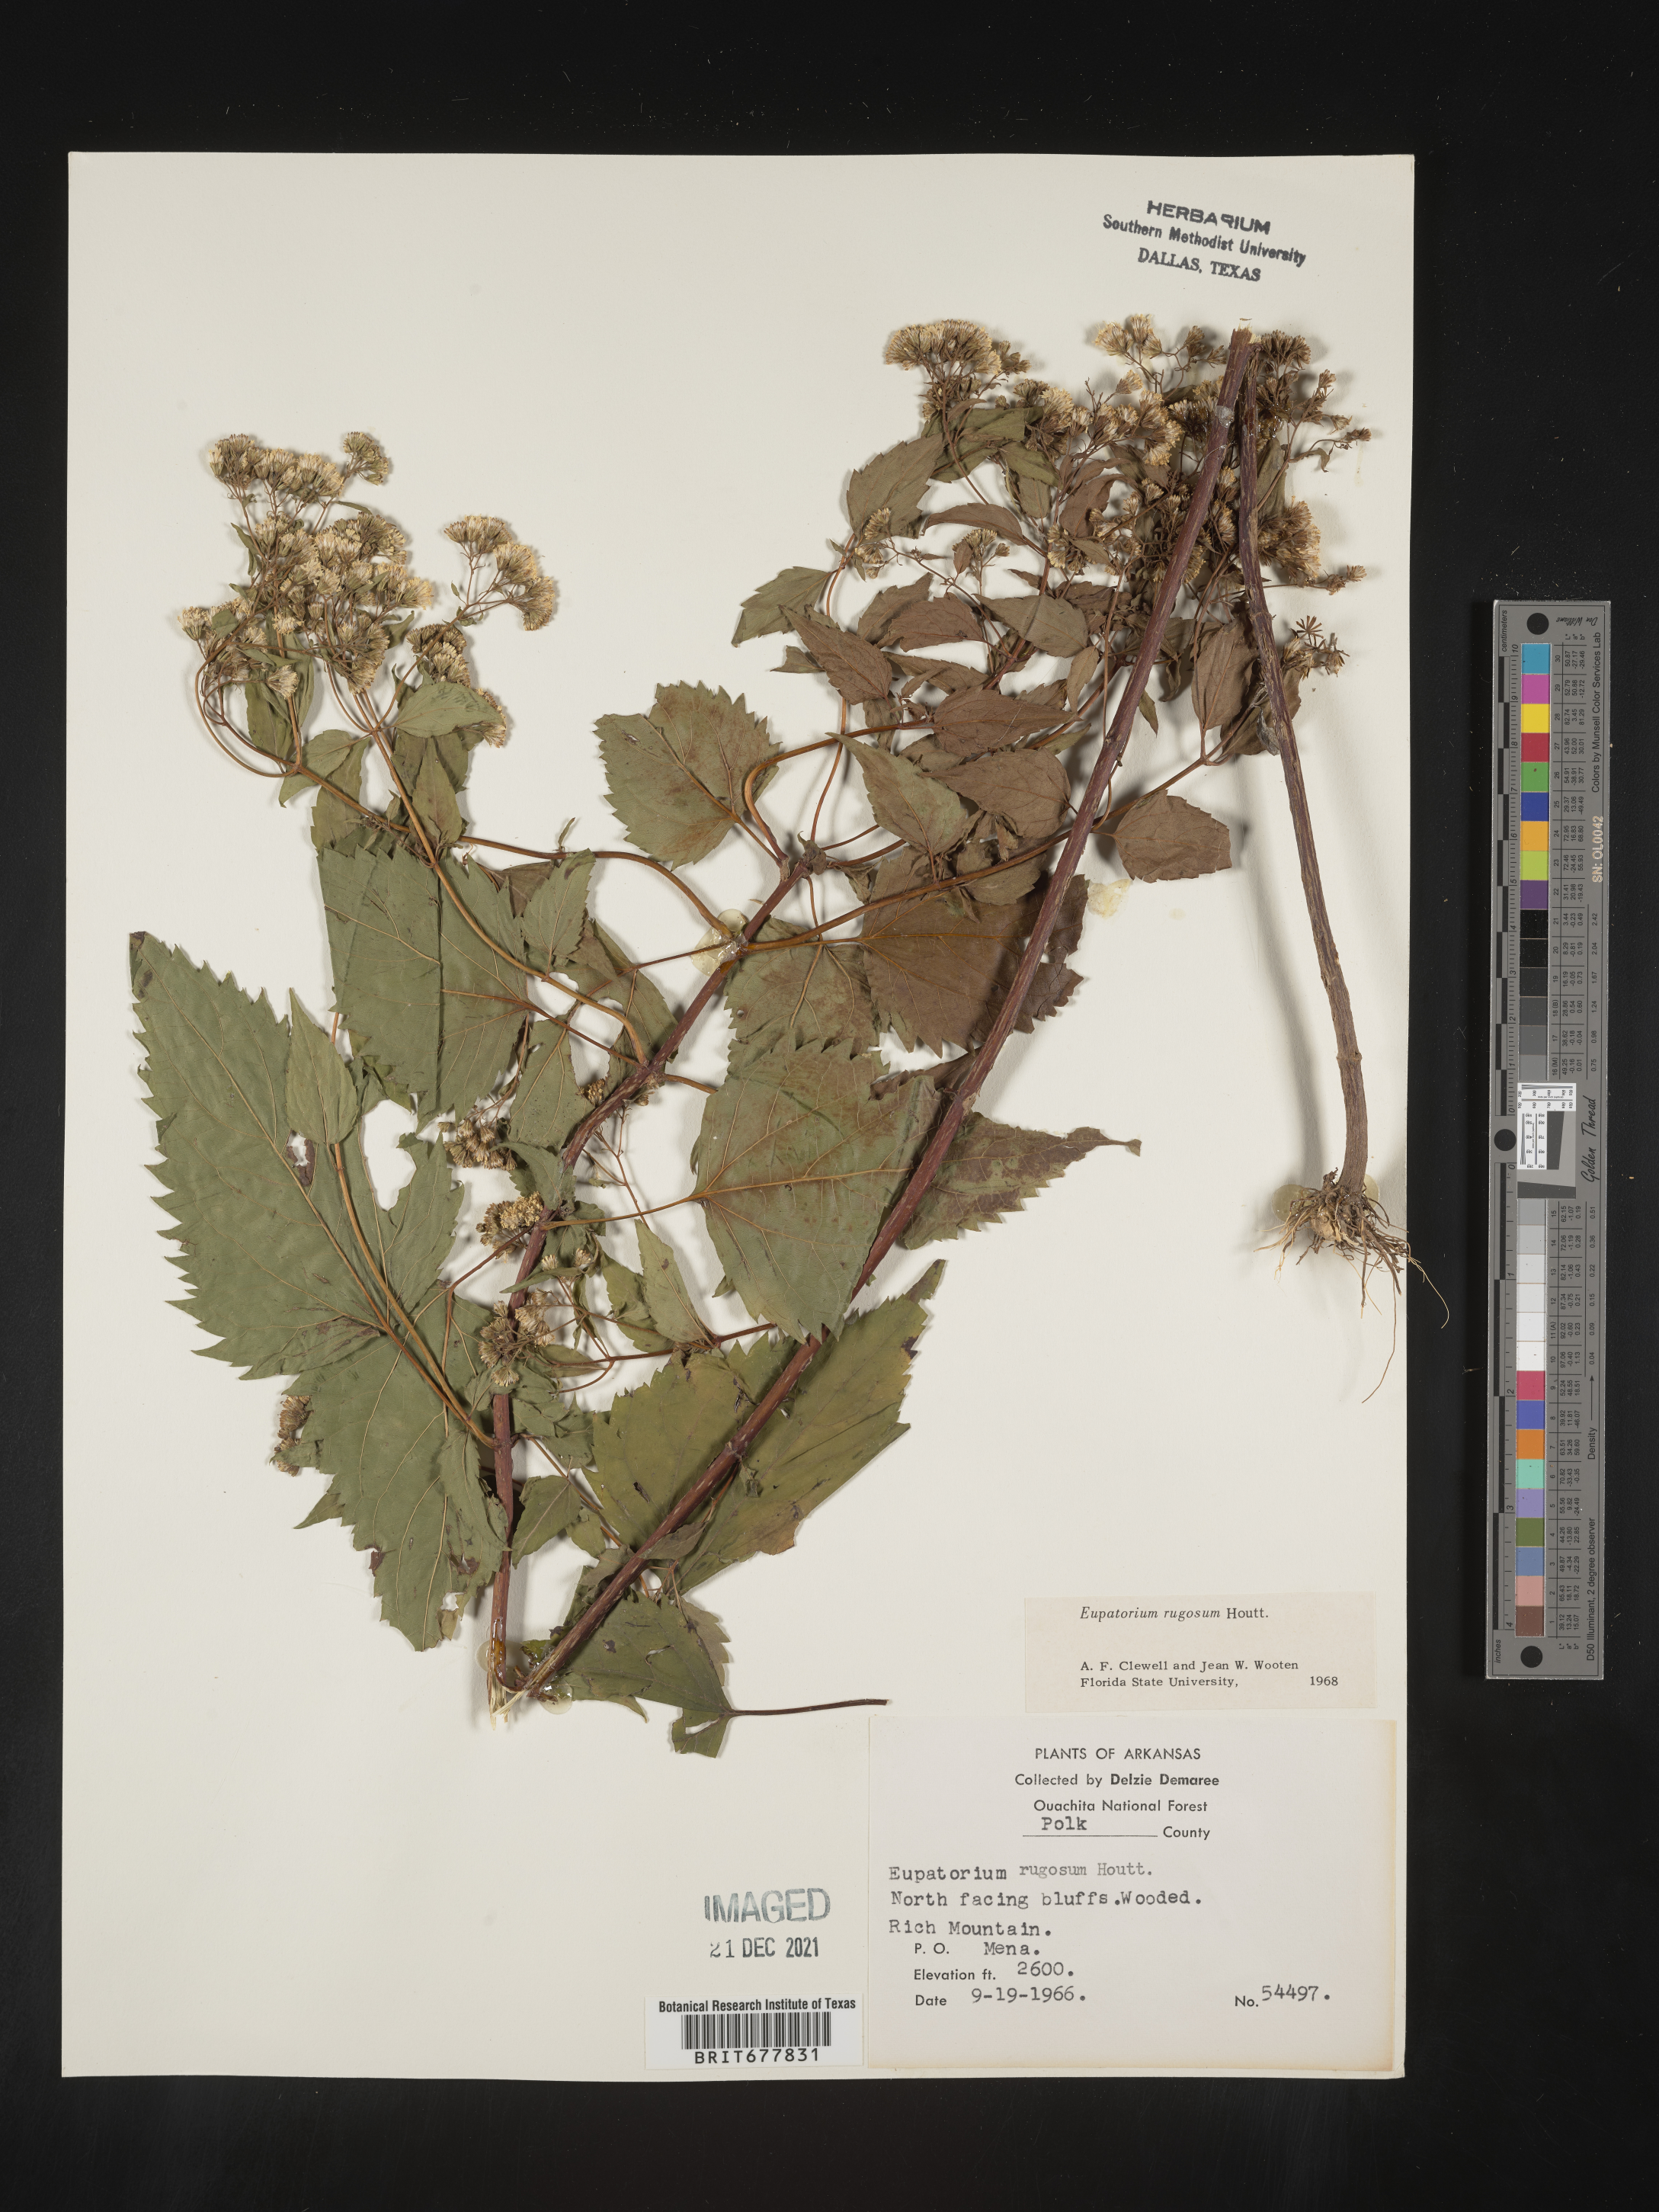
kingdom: Plantae
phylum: Tracheophyta
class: Magnoliopsida
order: Asterales
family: Asteraceae
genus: Ageratina
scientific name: Ageratina altissima
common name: White snakeroot
